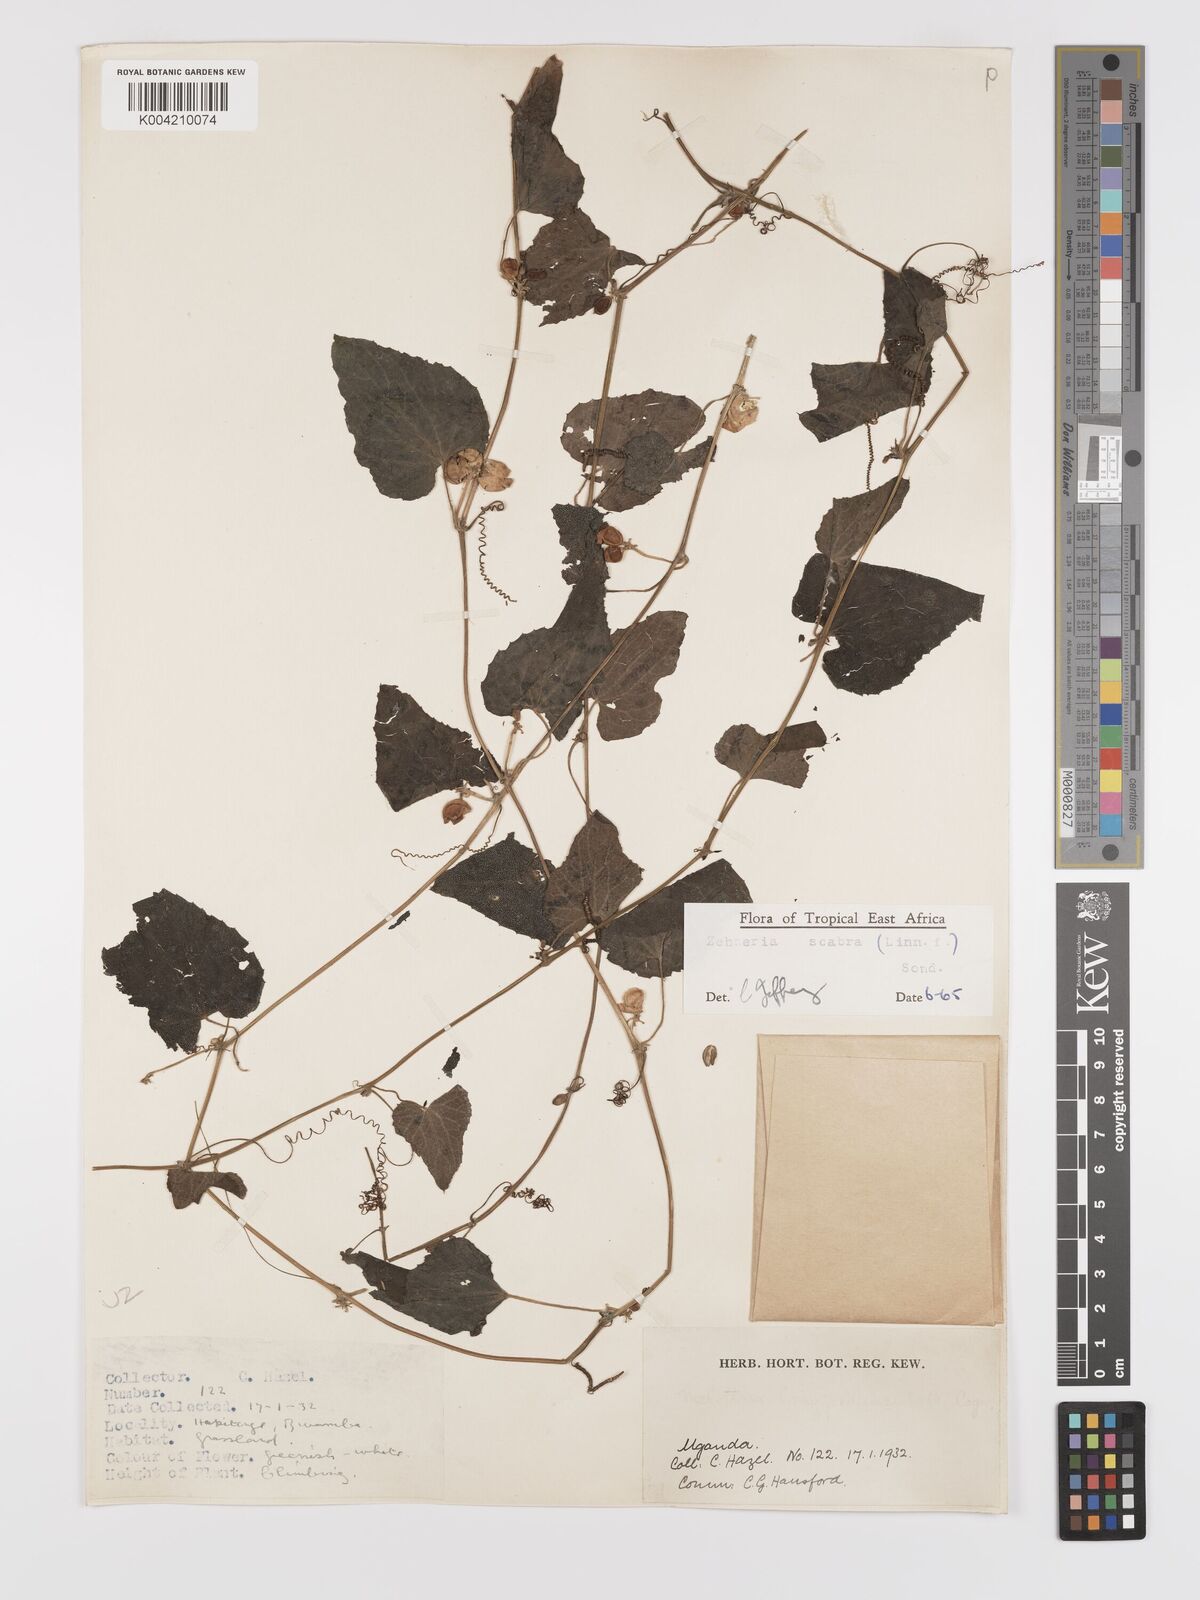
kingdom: Plantae
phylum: Tracheophyta
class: Magnoliopsida
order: Cucurbitales
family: Cucurbitaceae
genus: Zehneria
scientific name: Zehneria scabra
